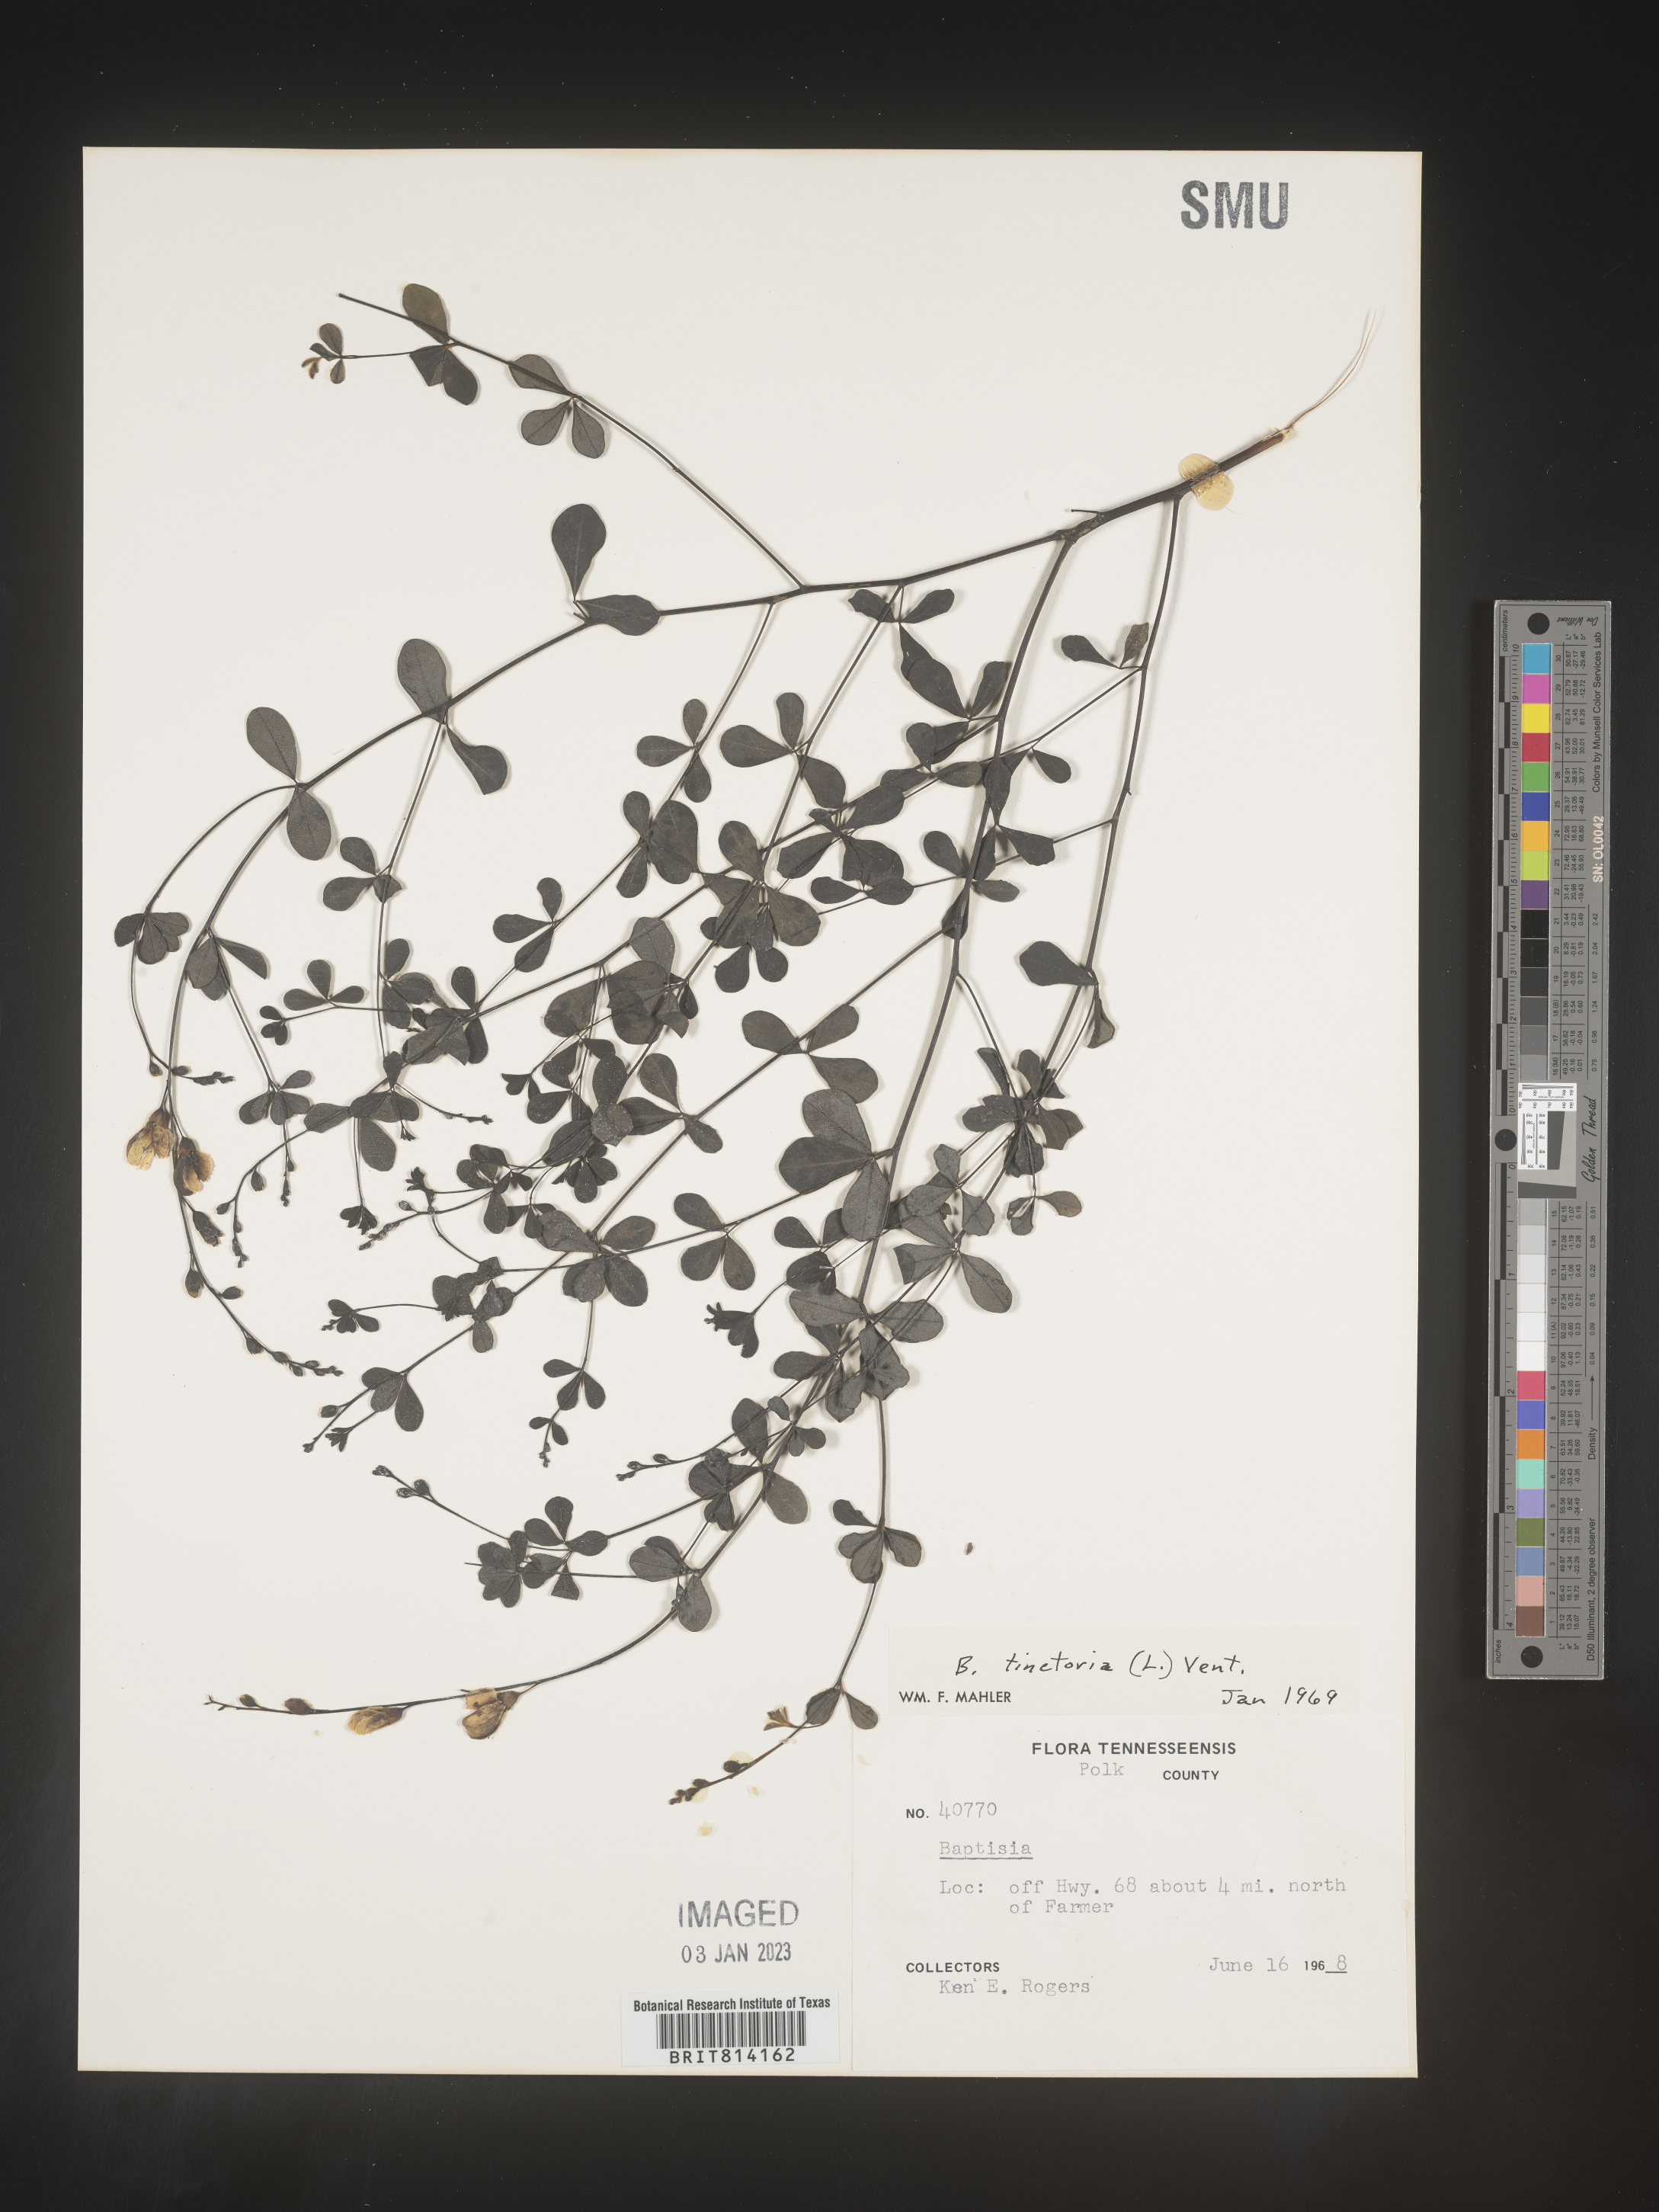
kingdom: Plantae
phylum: Tracheophyta
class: Magnoliopsida
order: Fabales
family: Fabaceae
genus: Baptisia
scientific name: Baptisia tinctoria
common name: Wild indigo
